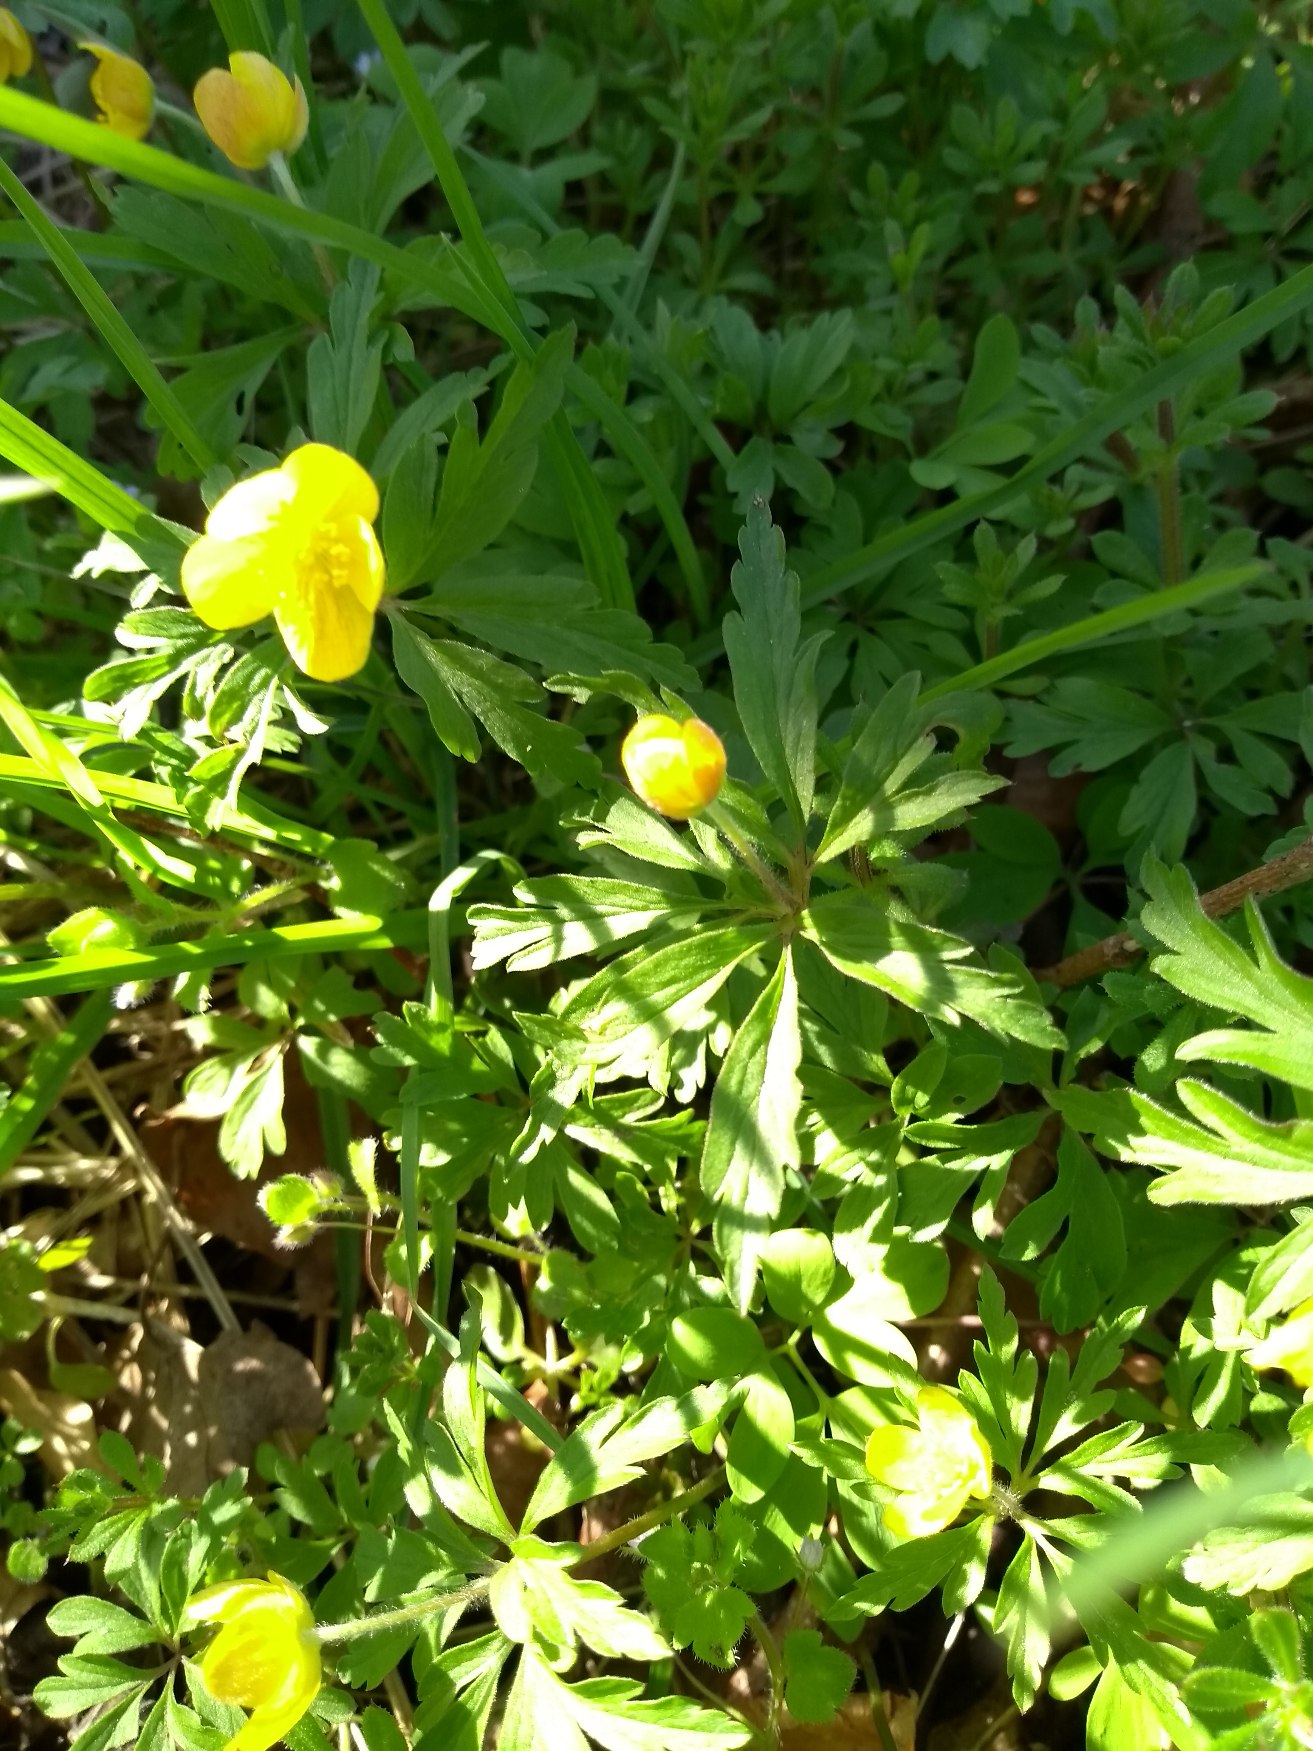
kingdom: Plantae
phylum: Tracheophyta
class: Magnoliopsida
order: Ranunculales
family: Ranunculaceae
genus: Anemone
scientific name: Anemone ranunculoides
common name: Gul anemone
